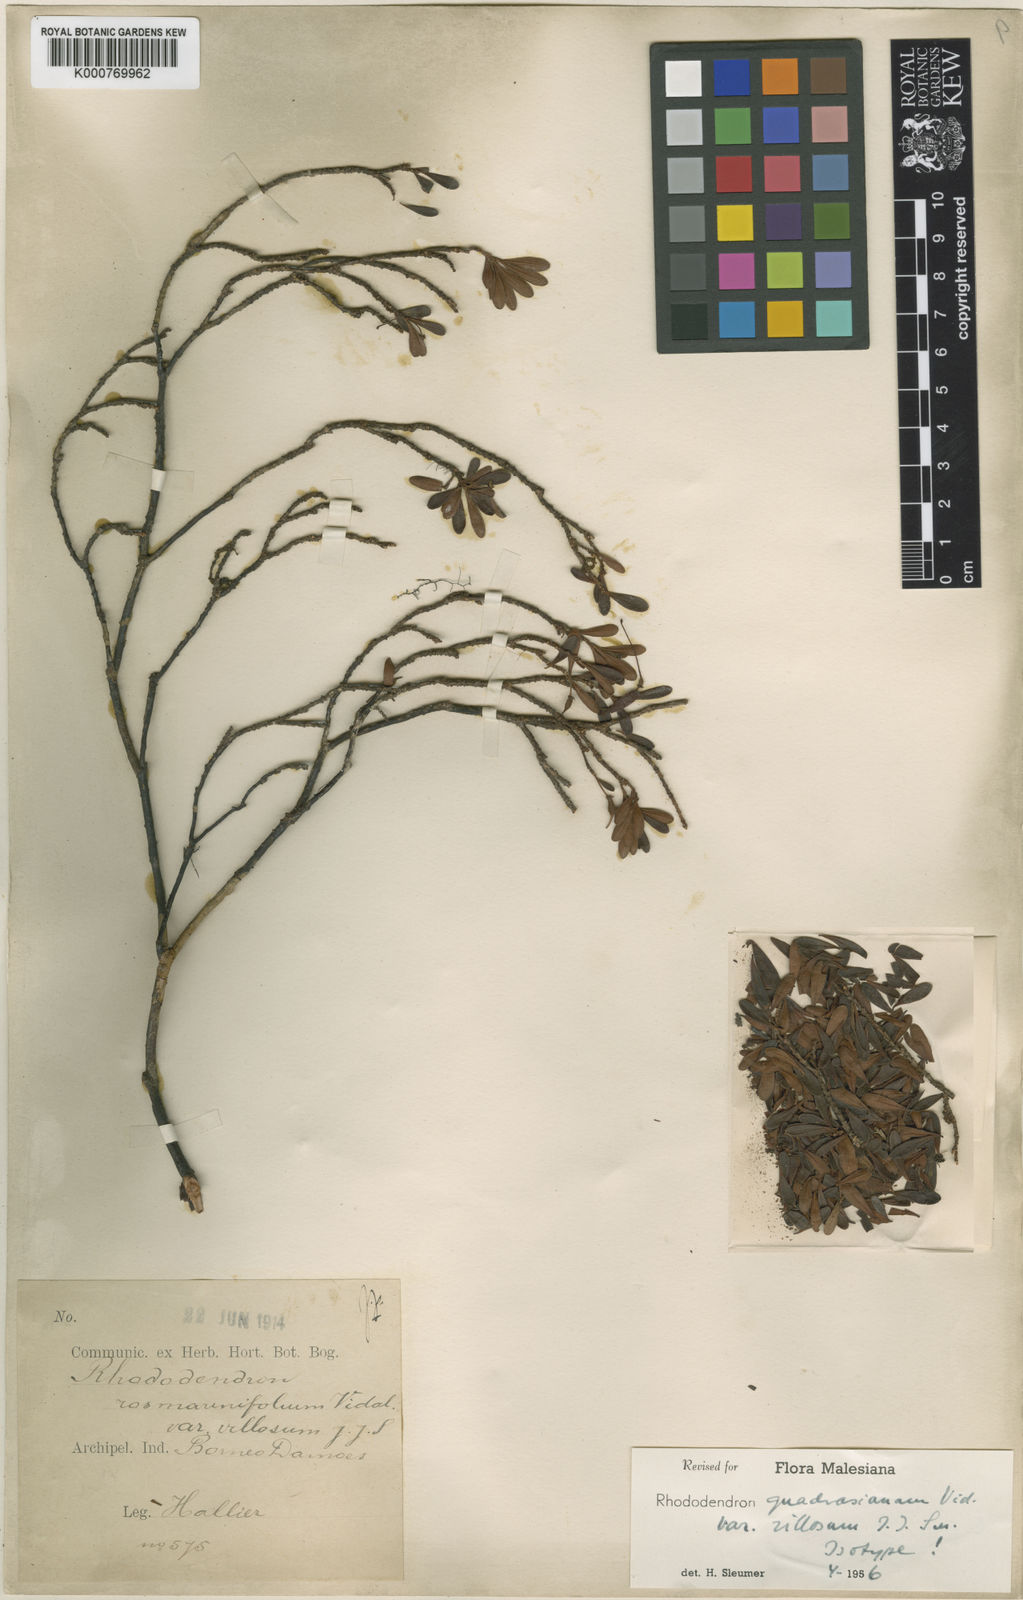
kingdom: Plantae
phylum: Tracheophyta
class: Magnoliopsida
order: Ericales
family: Ericaceae
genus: Rhododendron
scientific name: Rhododendron quadrasianum
